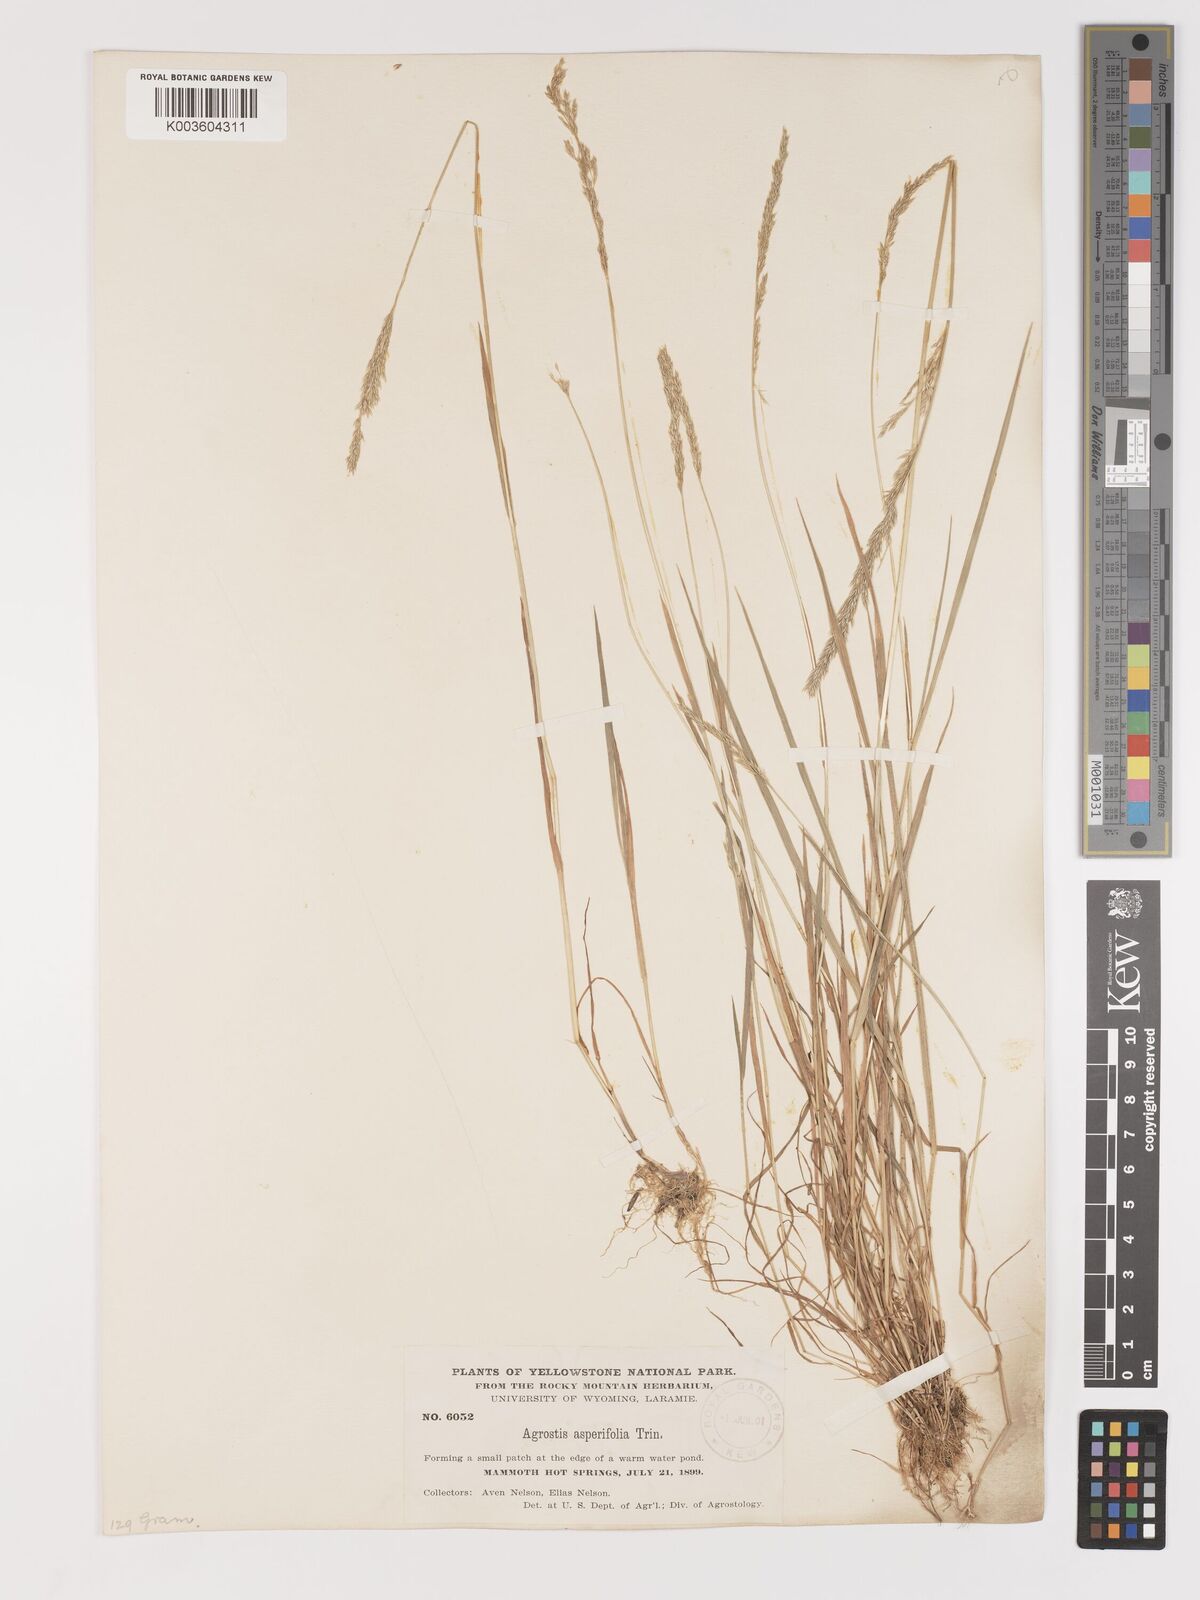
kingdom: Plantae
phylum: Tracheophyta
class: Liliopsida
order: Poales
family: Poaceae
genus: Agrostis
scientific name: Agrostis exarata
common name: Spike bent
